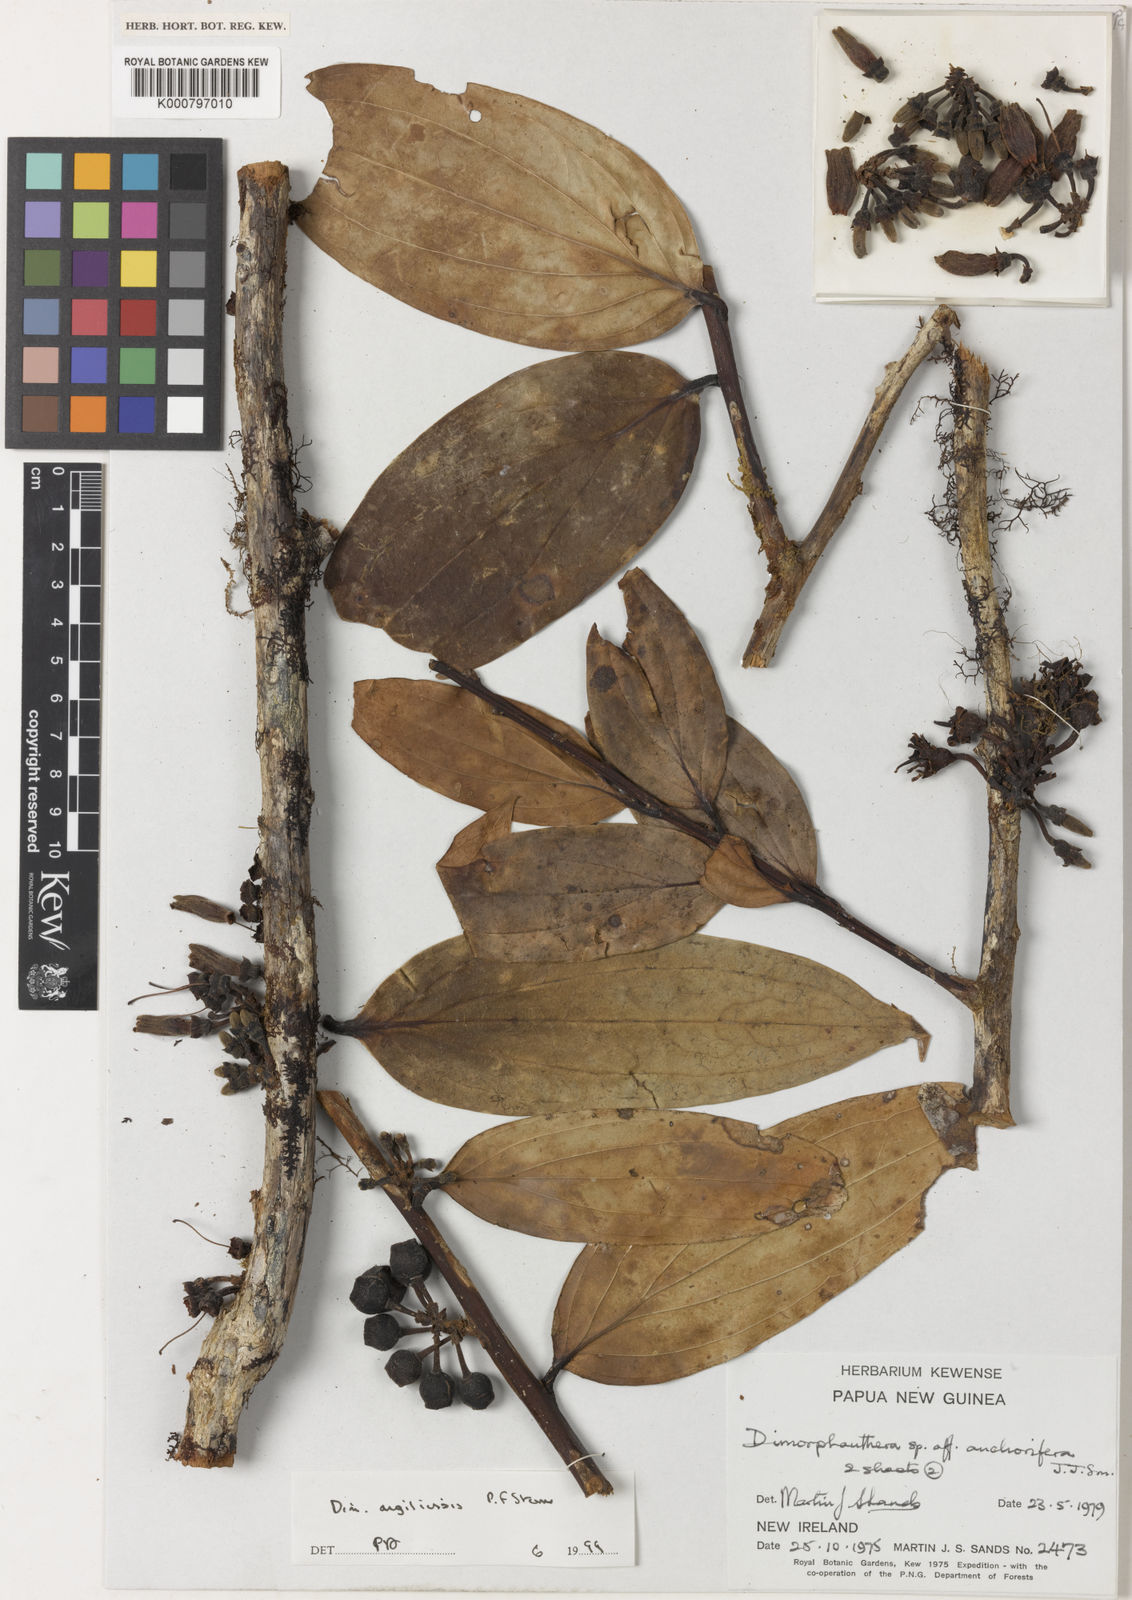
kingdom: Plantae
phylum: Tracheophyta
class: Magnoliopsida
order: Ericales
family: Ericaceae
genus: Dimorphanthera
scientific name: Dimorphanthera angiliensis
